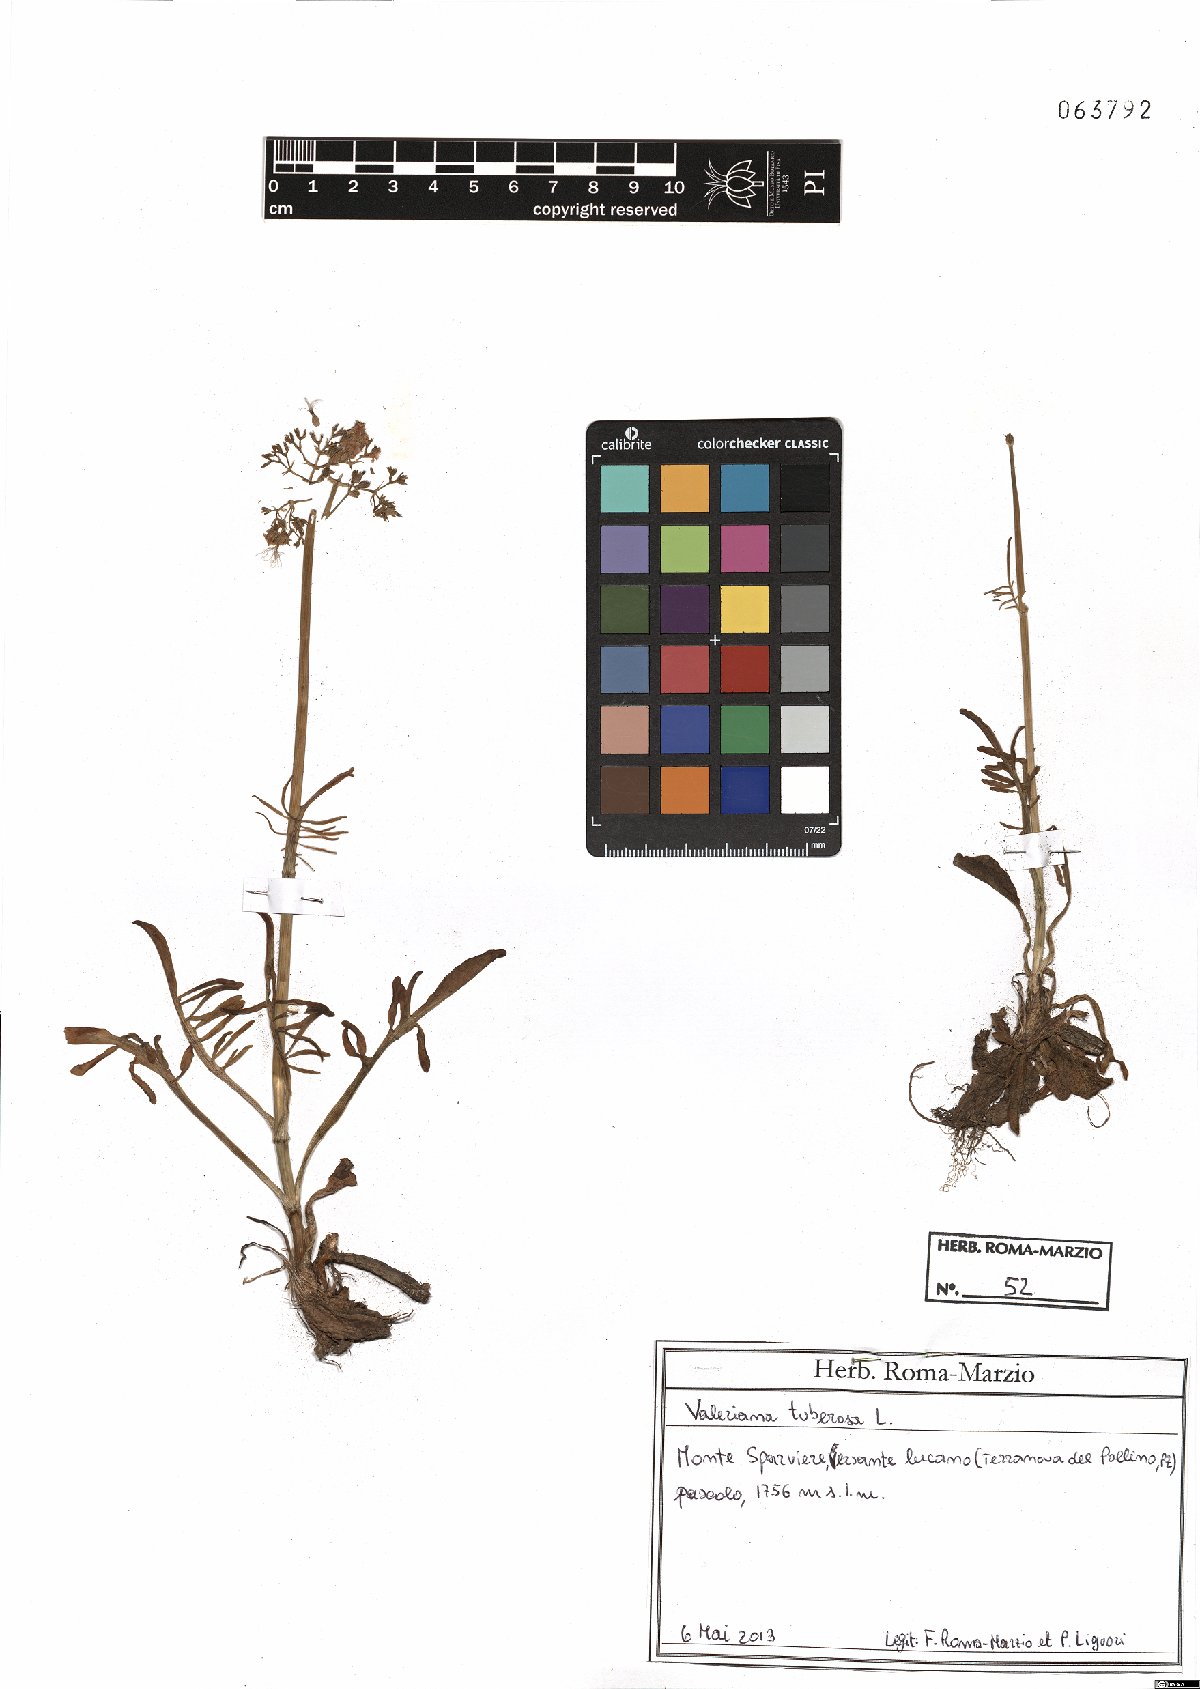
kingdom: Plantae
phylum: Tracheophyta
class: Magnoliopsida
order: Dipsacales
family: Caprifoliaceae
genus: Valeriana
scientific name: Valeriana tuberosa
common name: Tuberous valerian
